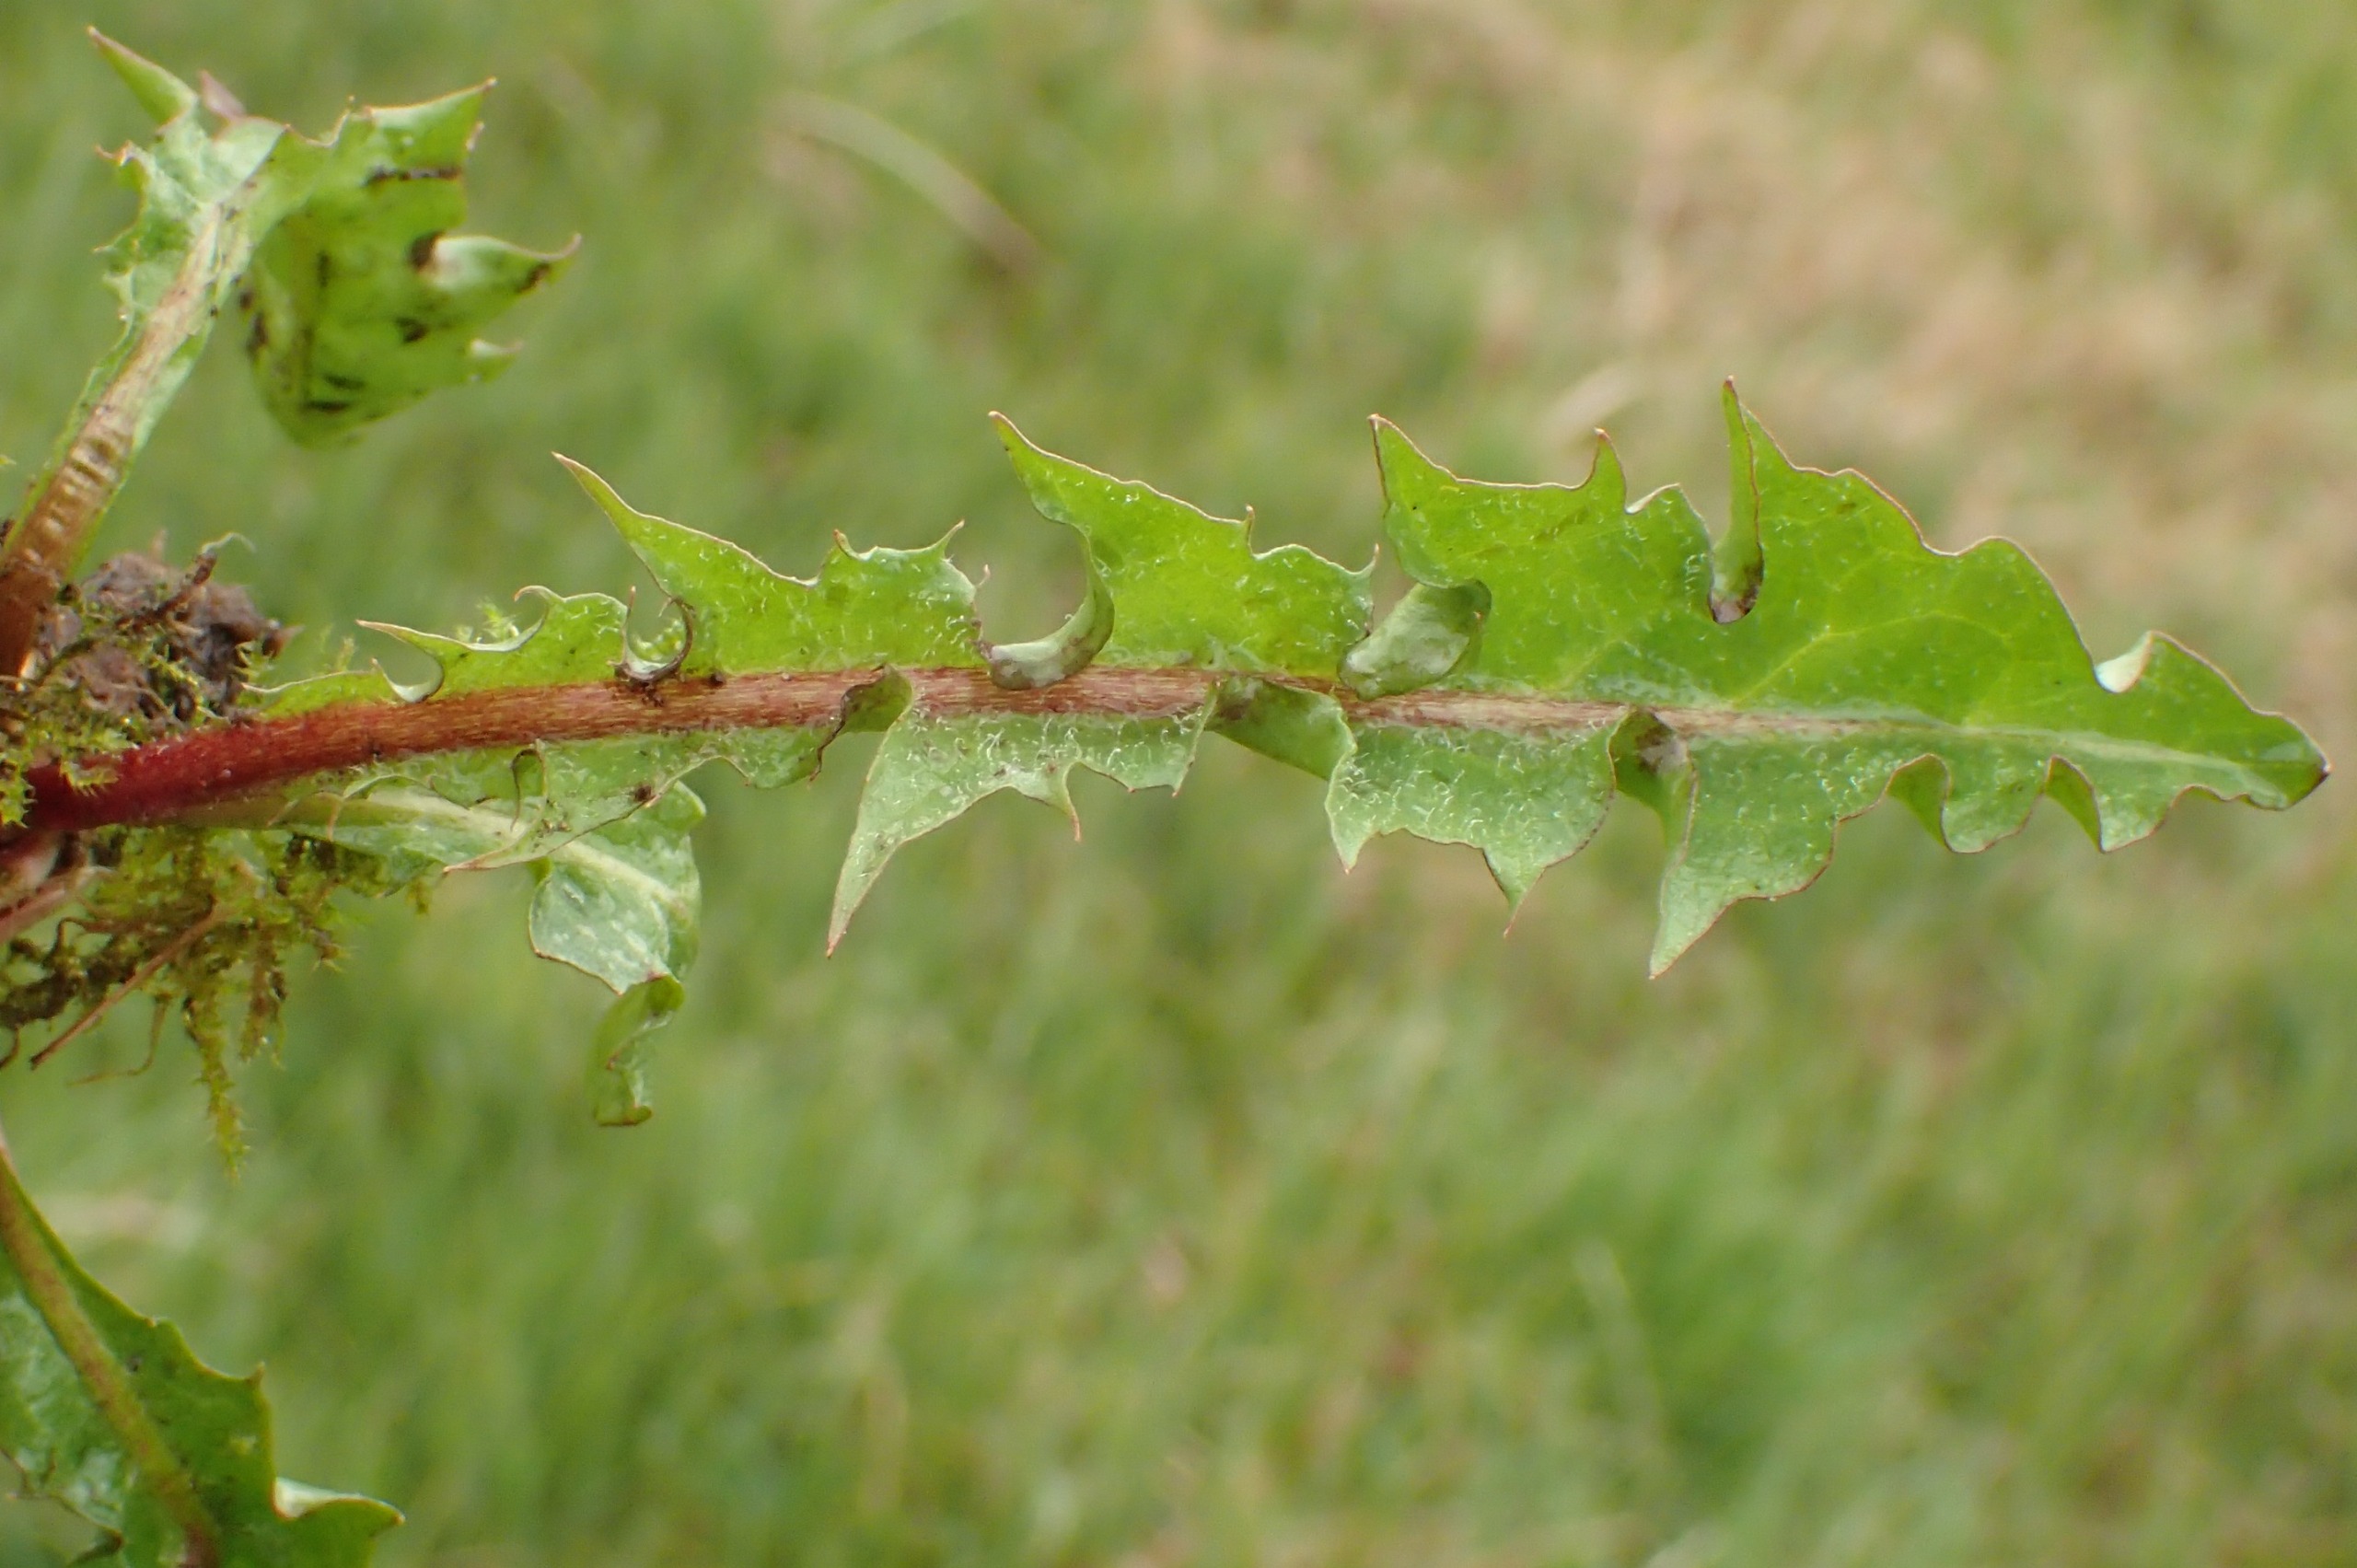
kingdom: Plantae
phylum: Tracheophyta
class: Magnoliopsida
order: Asterales
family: Asteraceae
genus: Taraxacum
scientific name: Taraxacum faeroense
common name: Kimbrisk atlantmælkebøtte
